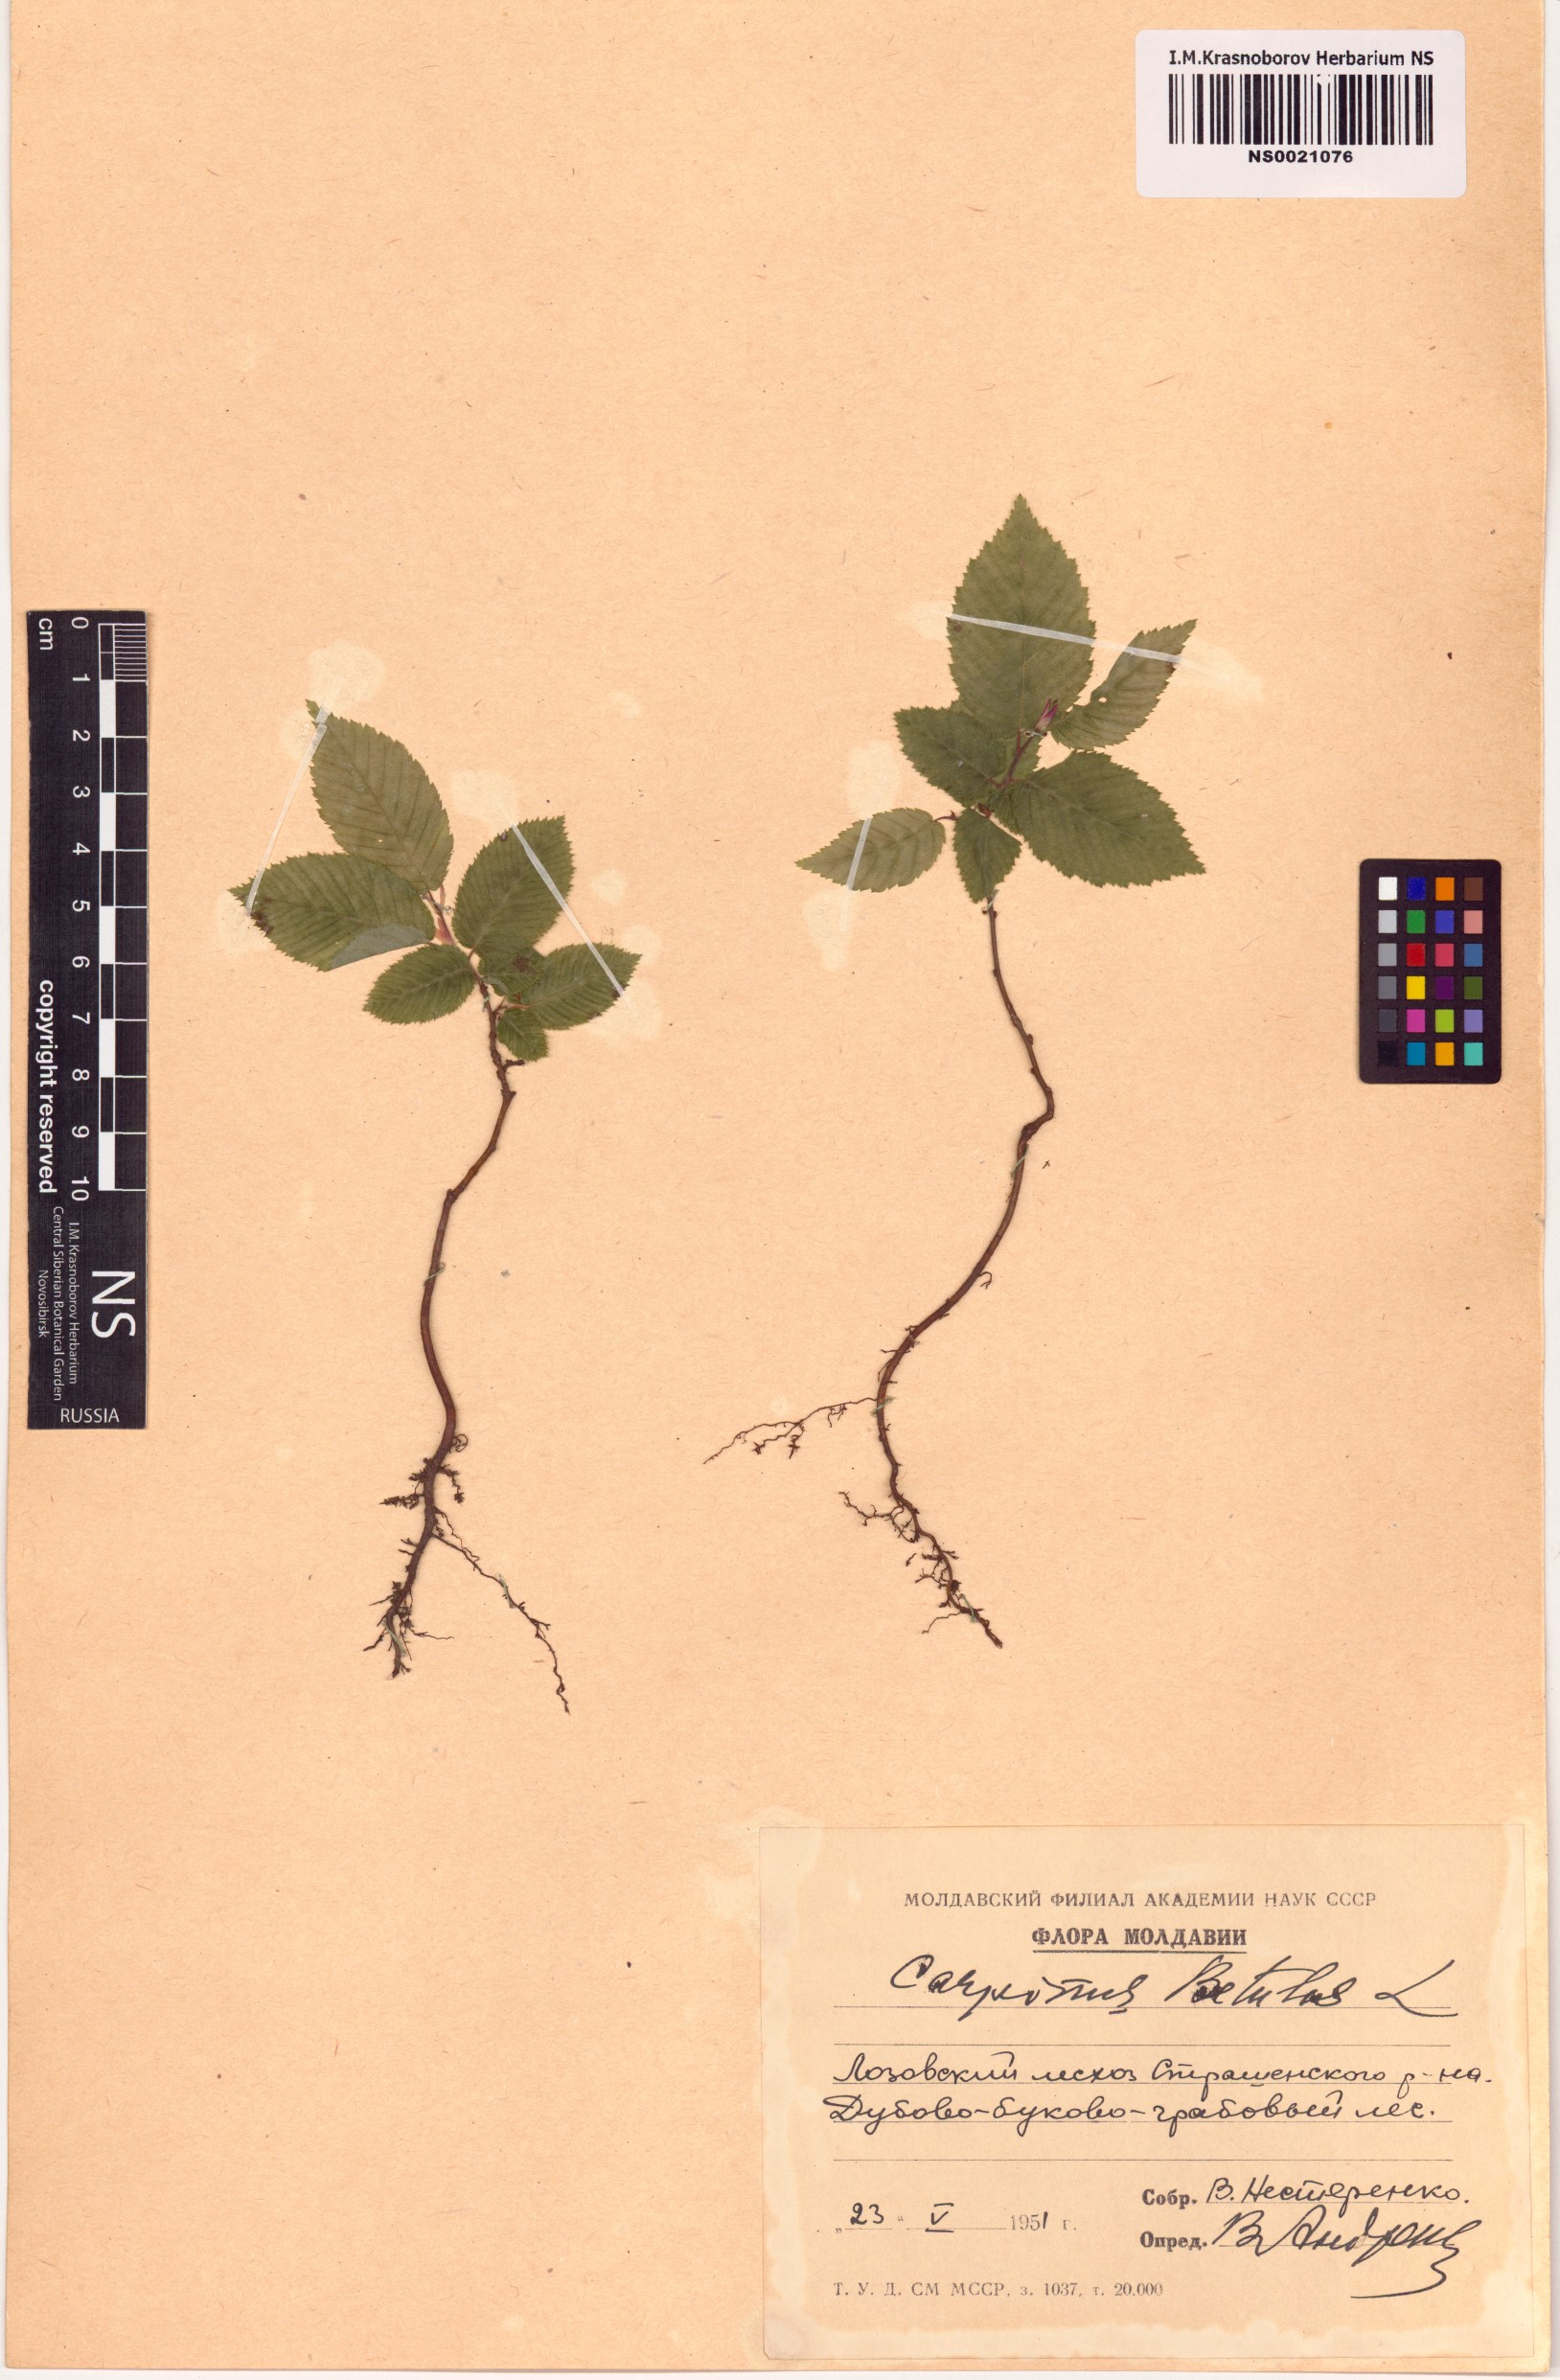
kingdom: Plantae
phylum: Tracheophyta
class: Magnoliopsida
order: Fagales
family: Betulaceae
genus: Carpinus
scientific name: Carpinus betulus
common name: Hornbeam
